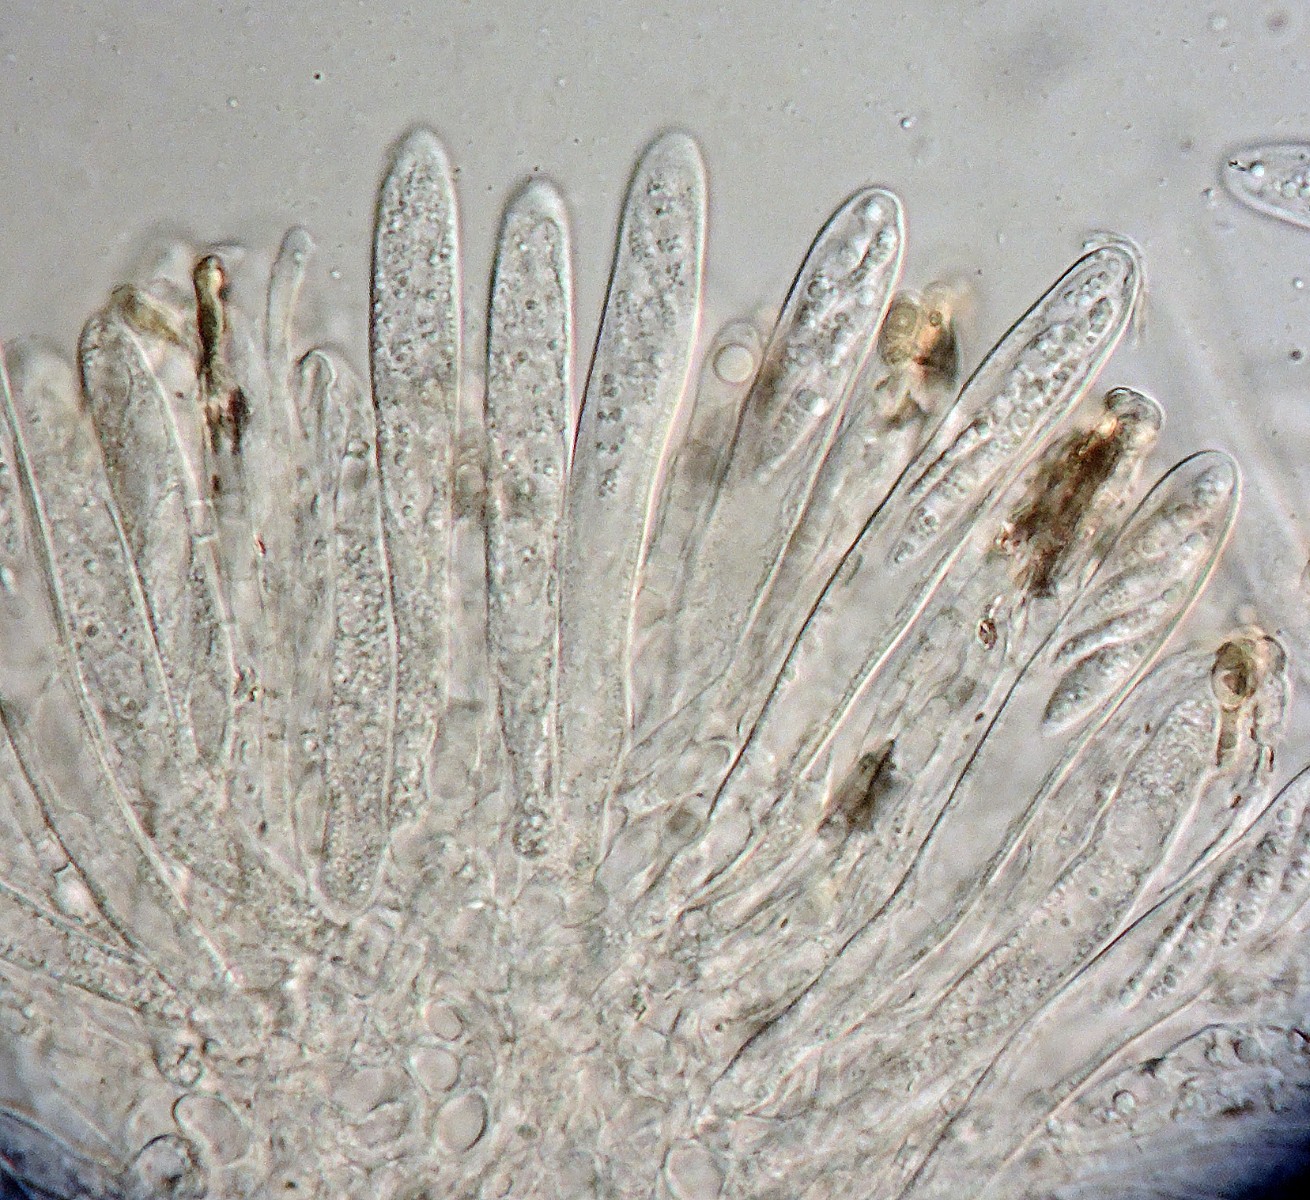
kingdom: Fungi
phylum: Ascomycota
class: Leotiomycetes
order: Helotiales
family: Pezizellaceae
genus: Pezizella
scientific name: Pezizella
